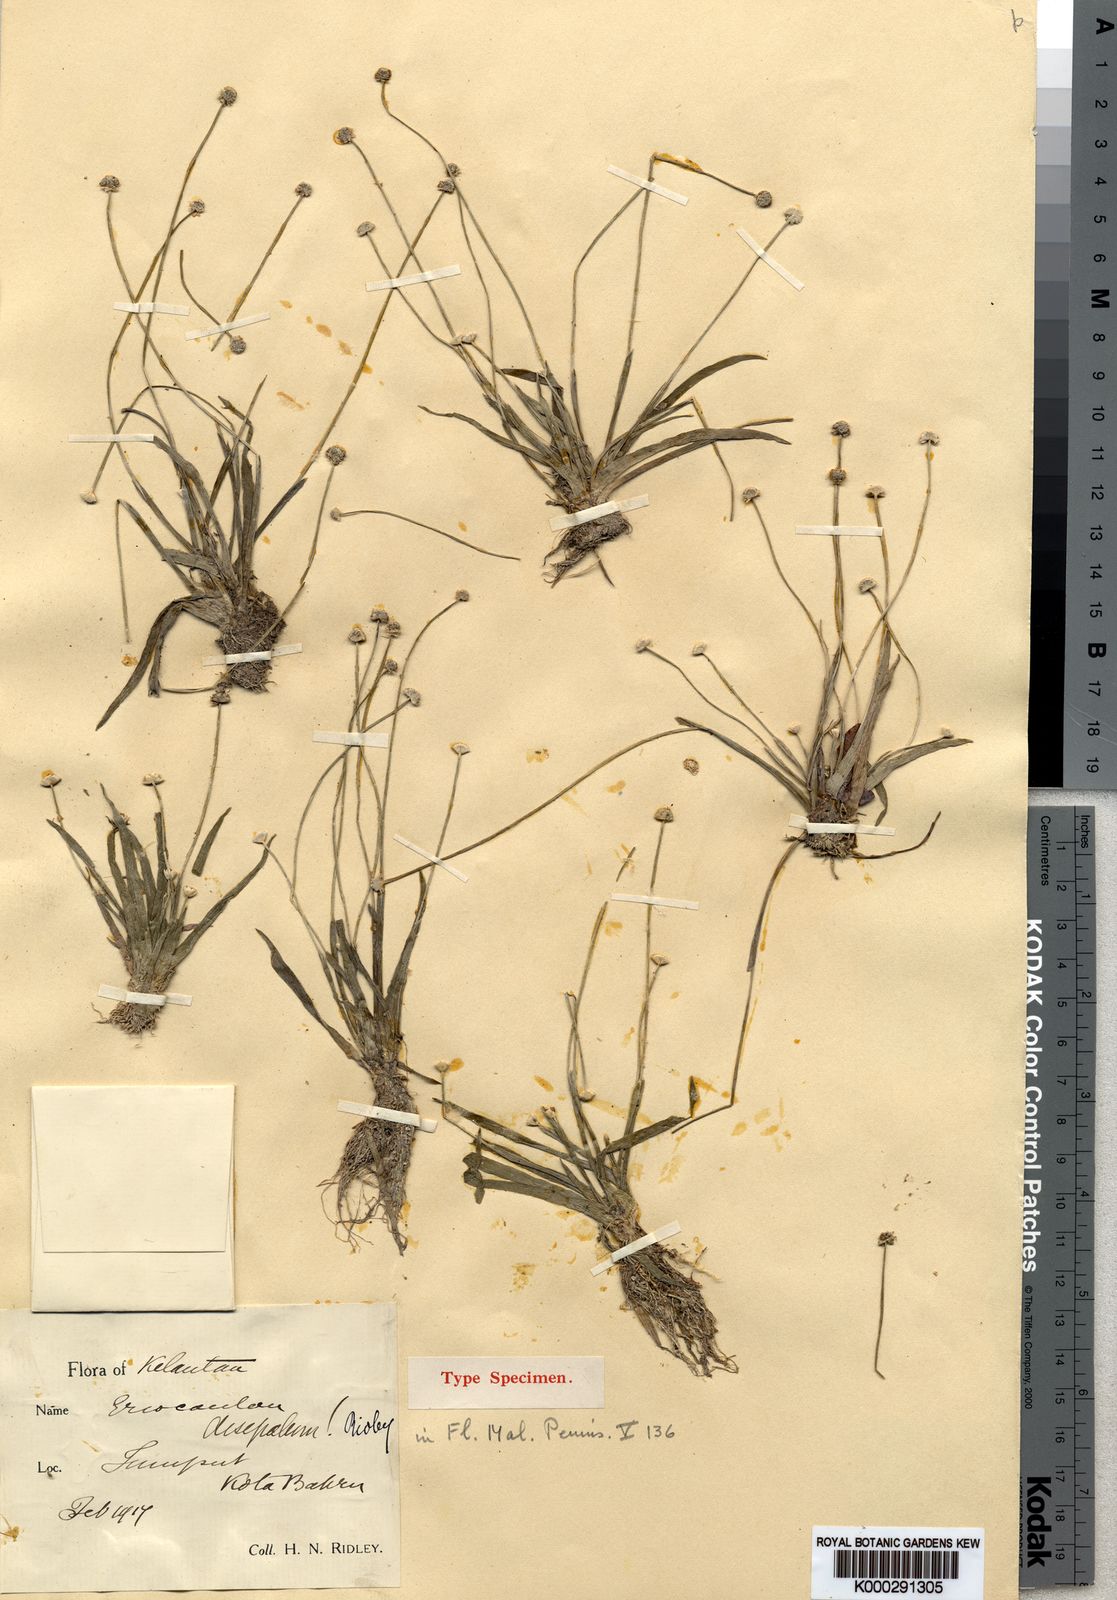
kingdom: Plantae
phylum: Tracheophyta
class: Liliopsida
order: Poales
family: Eriocaulaceae
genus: Eriocaulon
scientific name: Eriocaulon disepalum
